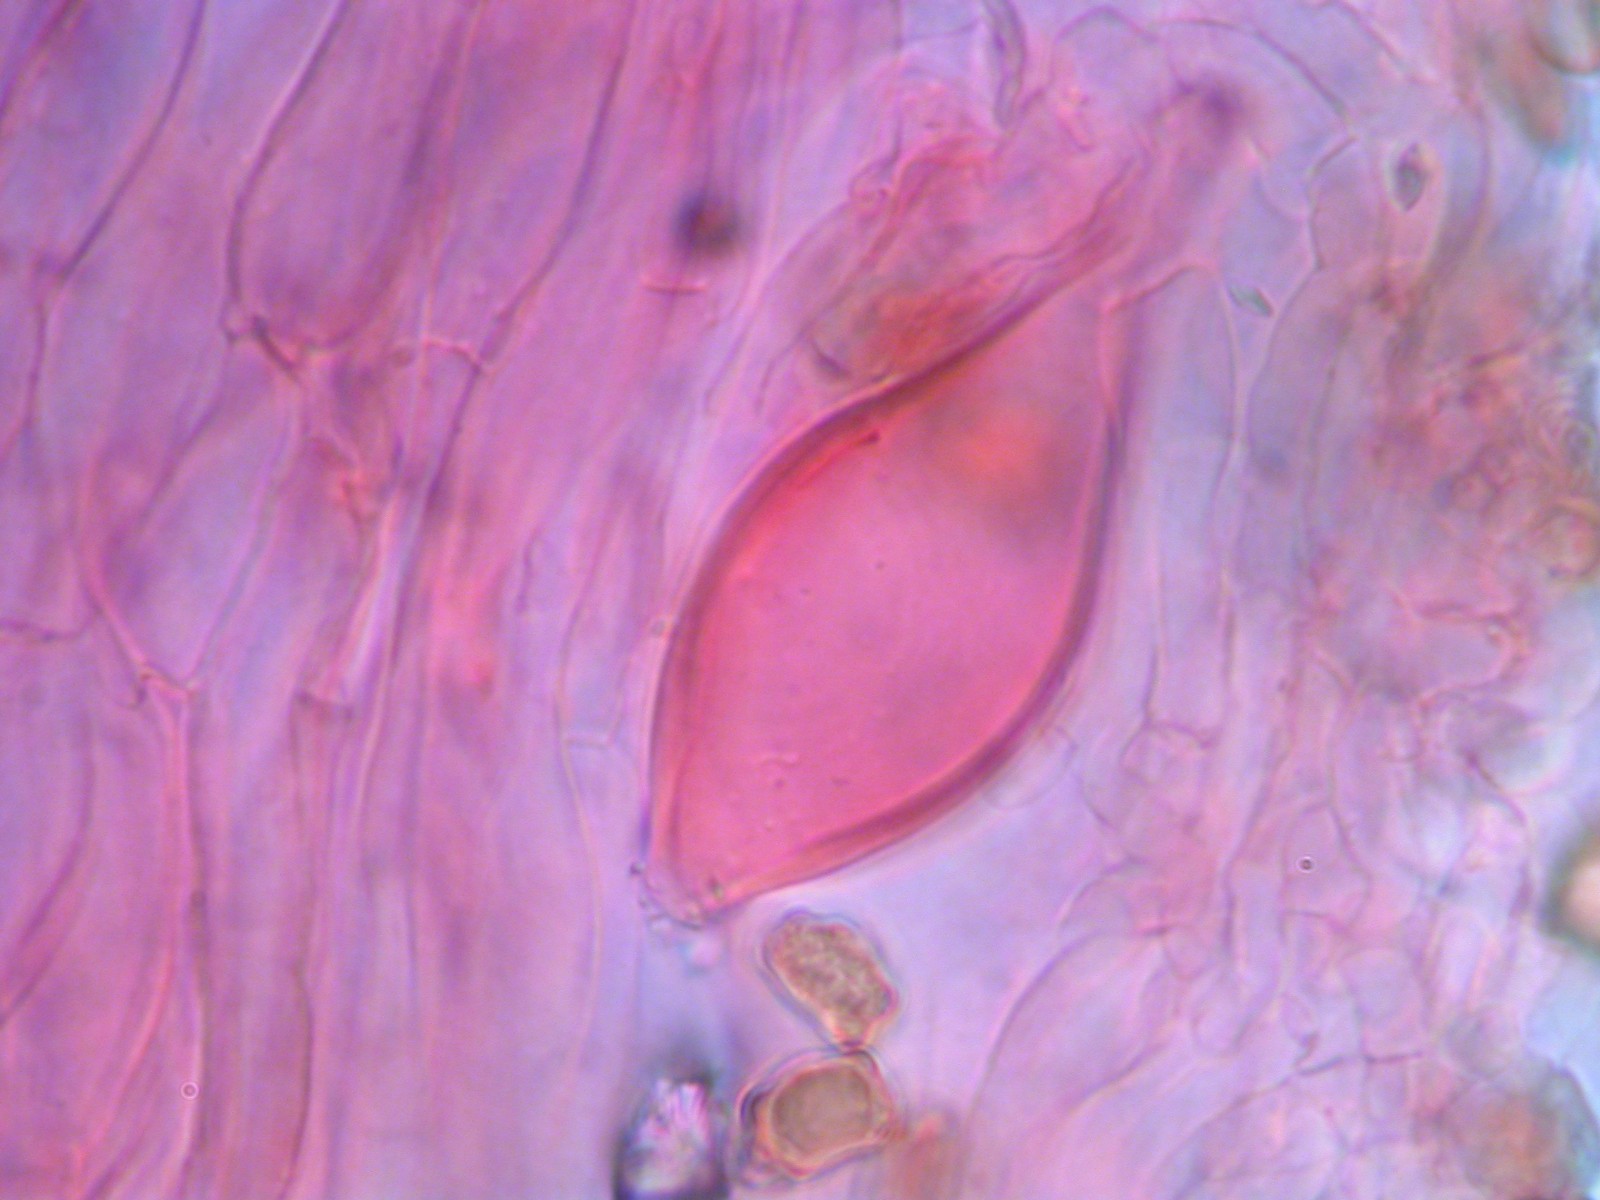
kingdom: Fungi
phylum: Basidiomycota
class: Agaricomycetes
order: Agaricales
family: Inocybaceae
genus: Inocybe
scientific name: Inocybe
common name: trævlhat
